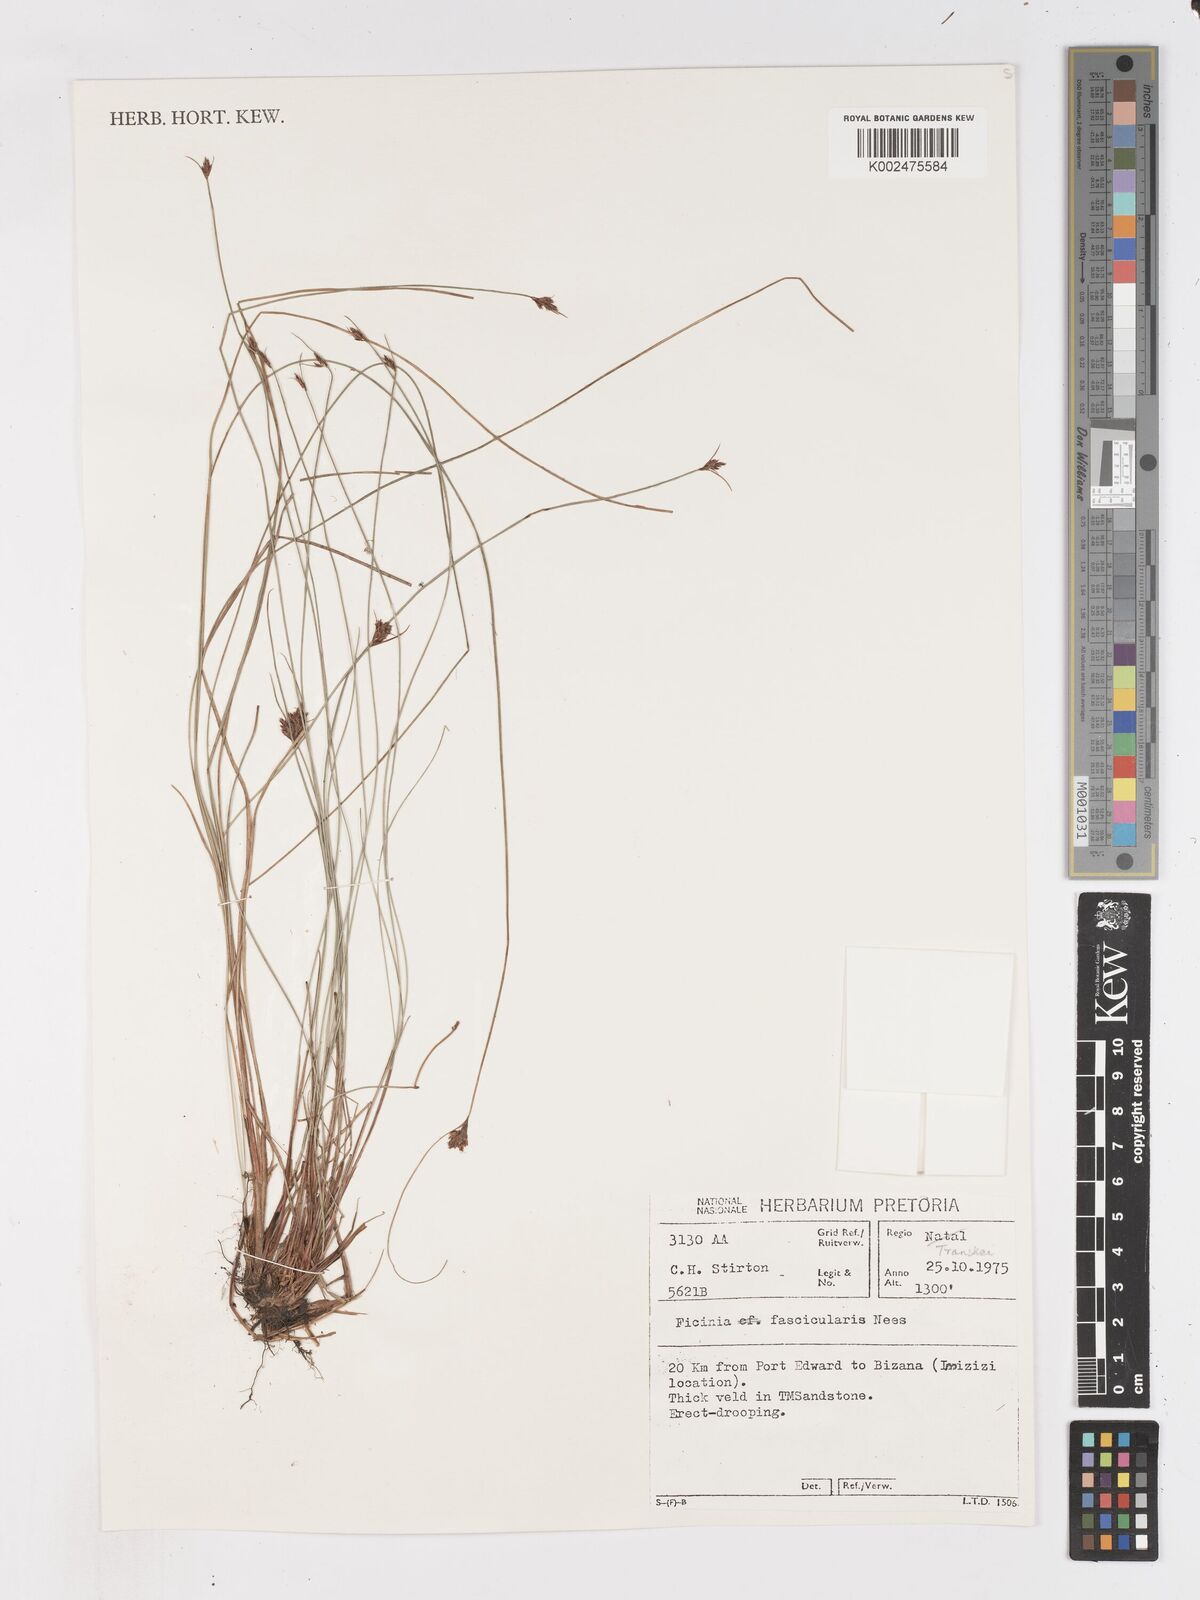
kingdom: Plantae
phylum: Tracheophyta
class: Liliopsida
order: Poales
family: Cyperaceae
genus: Ficinia
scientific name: Ficinia fascicularis
